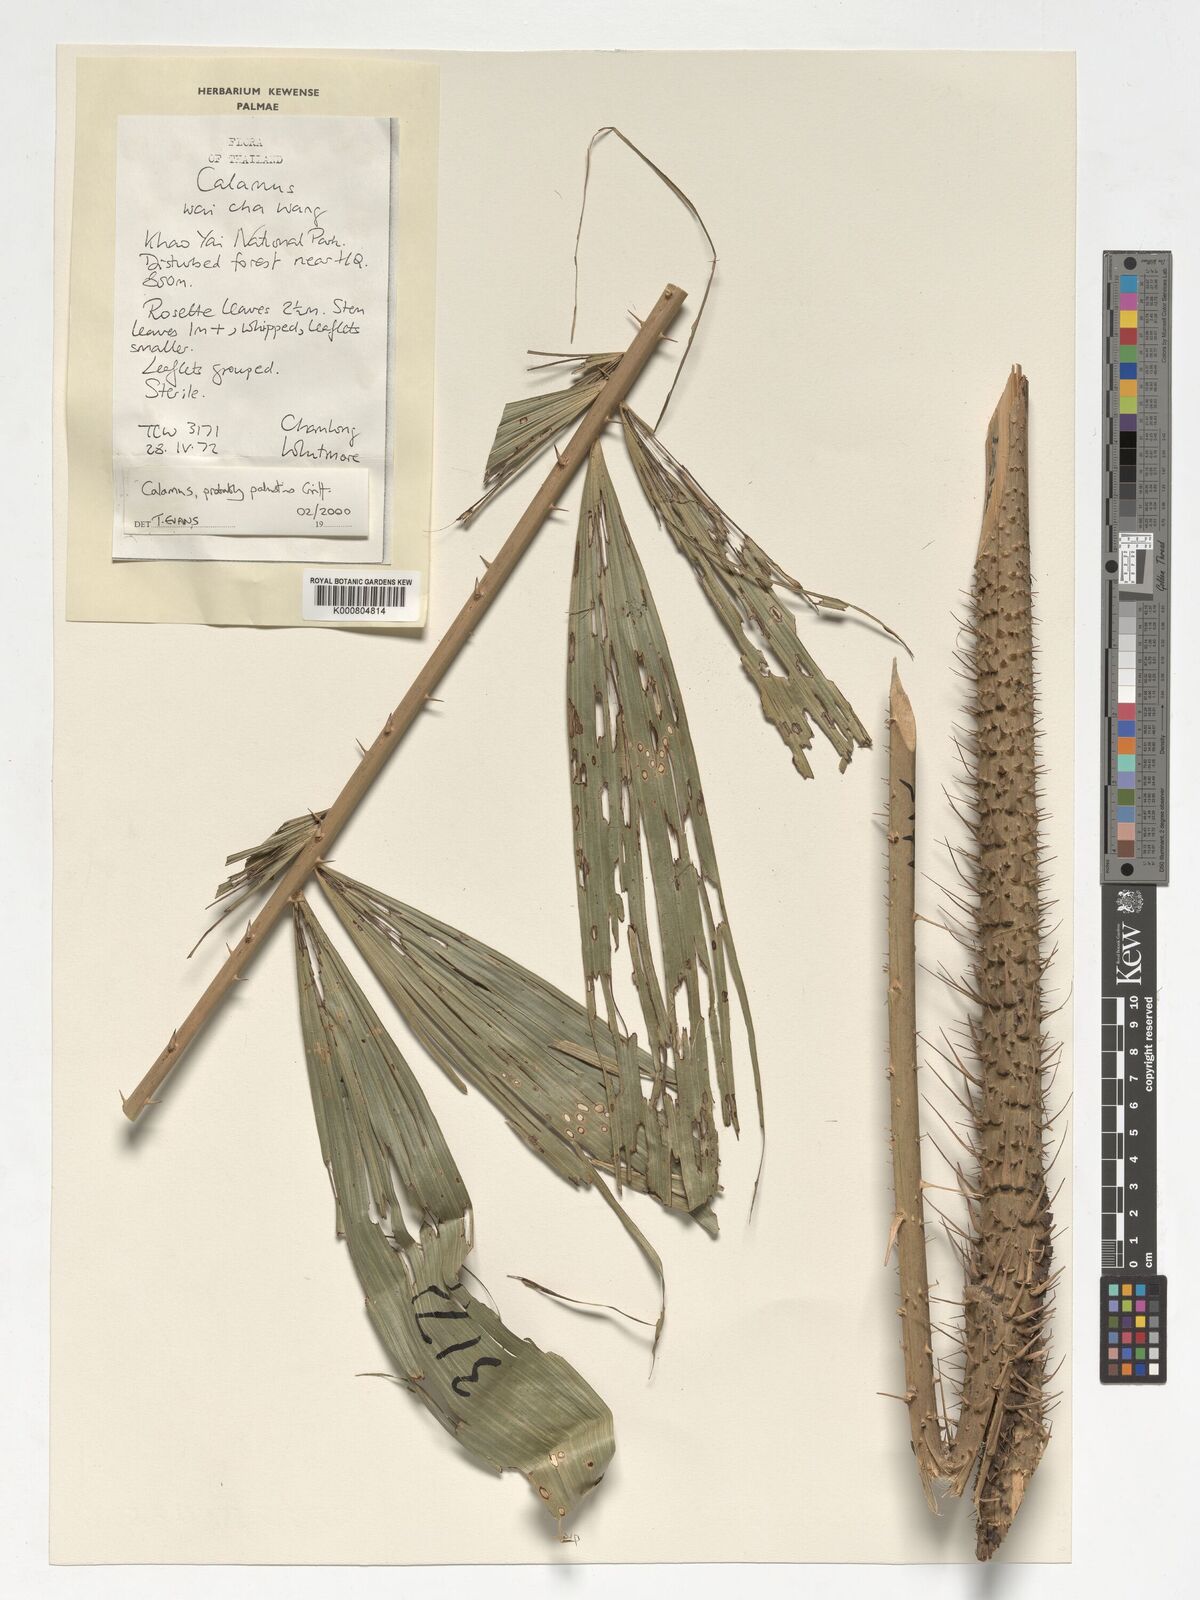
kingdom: Plantae
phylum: Tracheophyta
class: Liliopsida
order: Arecales
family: Arecaceae
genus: Calamus
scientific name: Calamus latifolius
